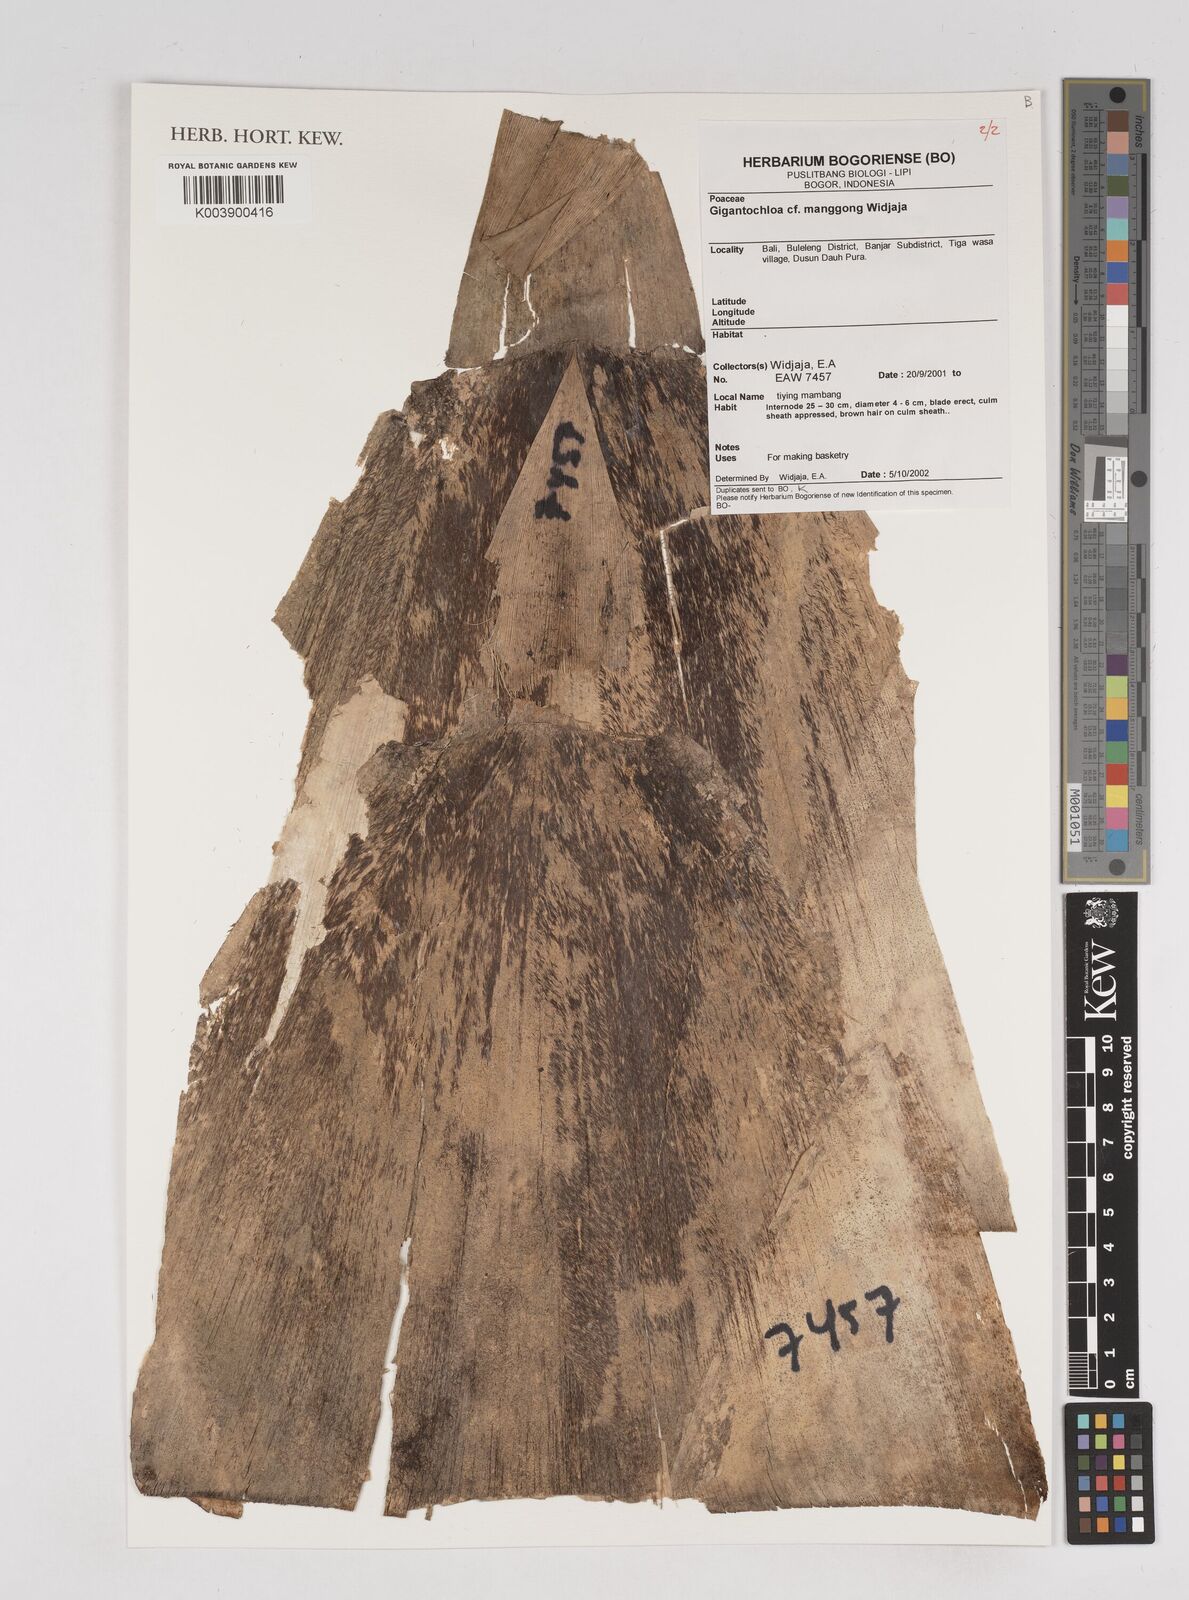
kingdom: Plantae
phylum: Tracheophyta
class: Liliopsida
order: Poales
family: Poaceae
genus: Gigantochloa
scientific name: Gigantochloa manggong
